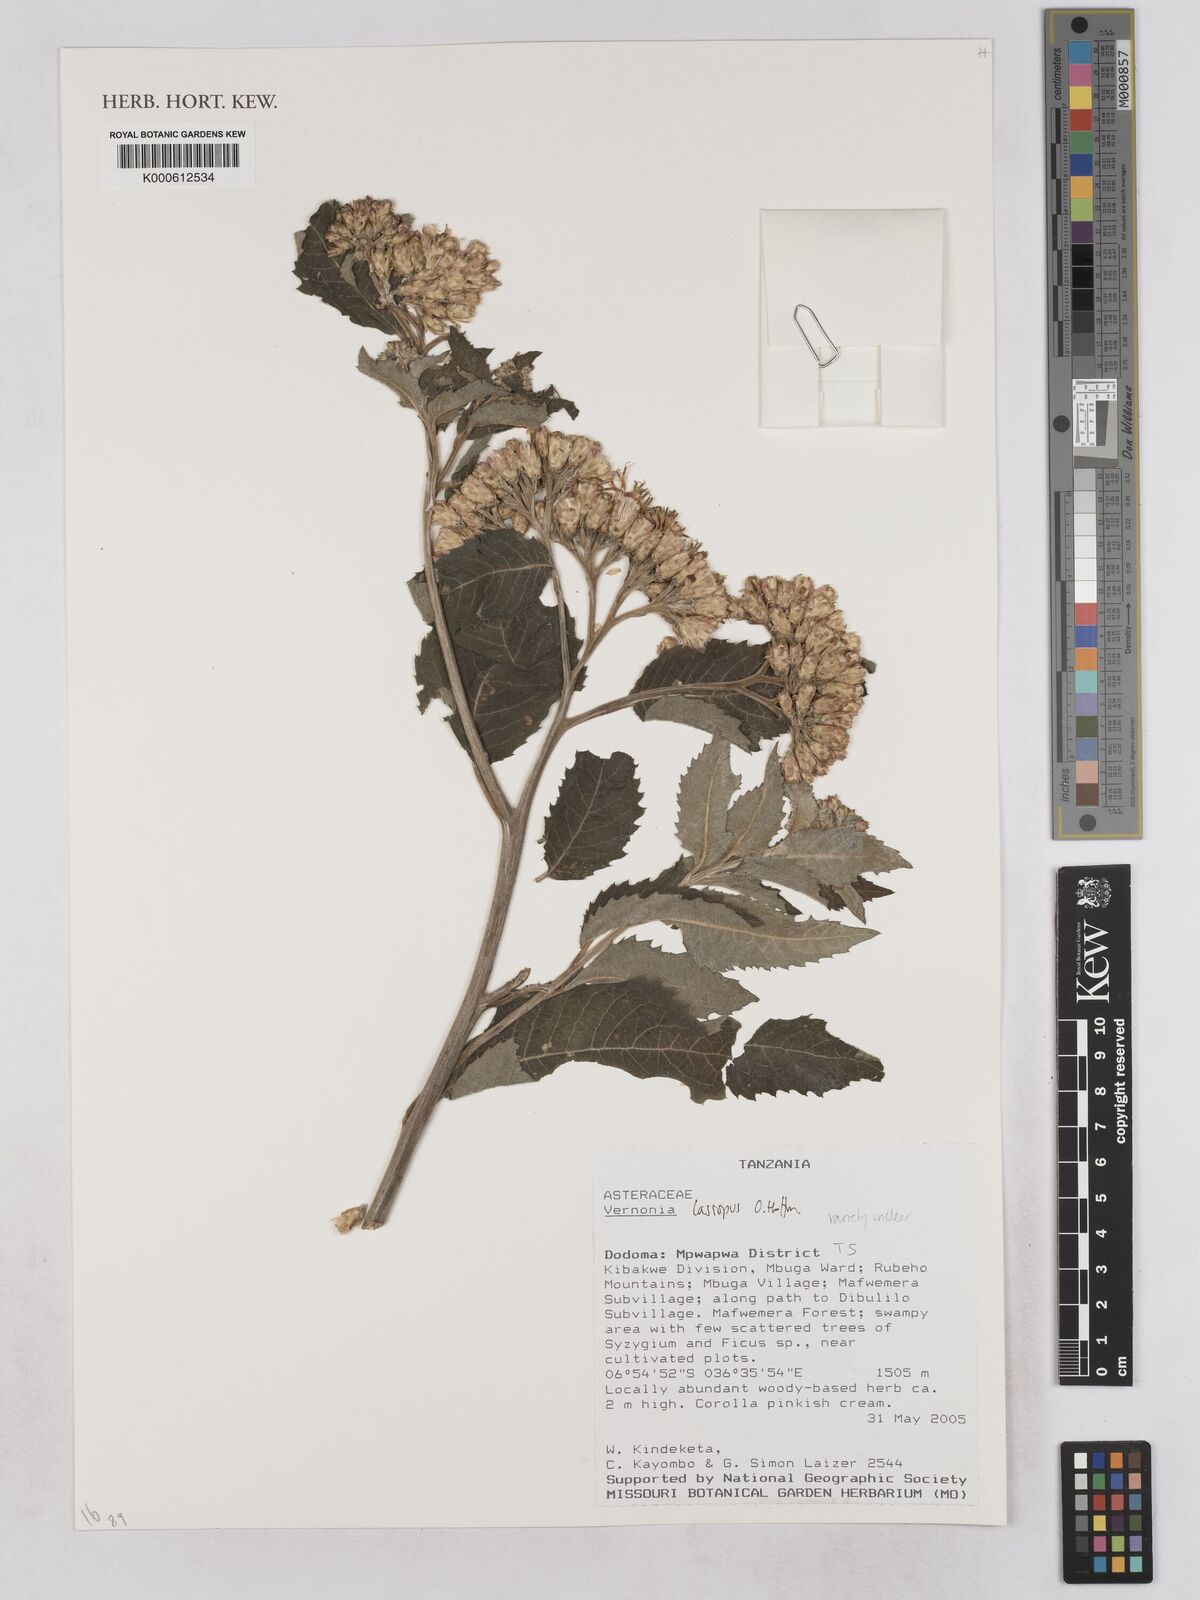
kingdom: Plantae
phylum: Tracheophyta
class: Magnoliopsida
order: Asterales
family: Asteraceae
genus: Vernonia
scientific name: Vernonia
